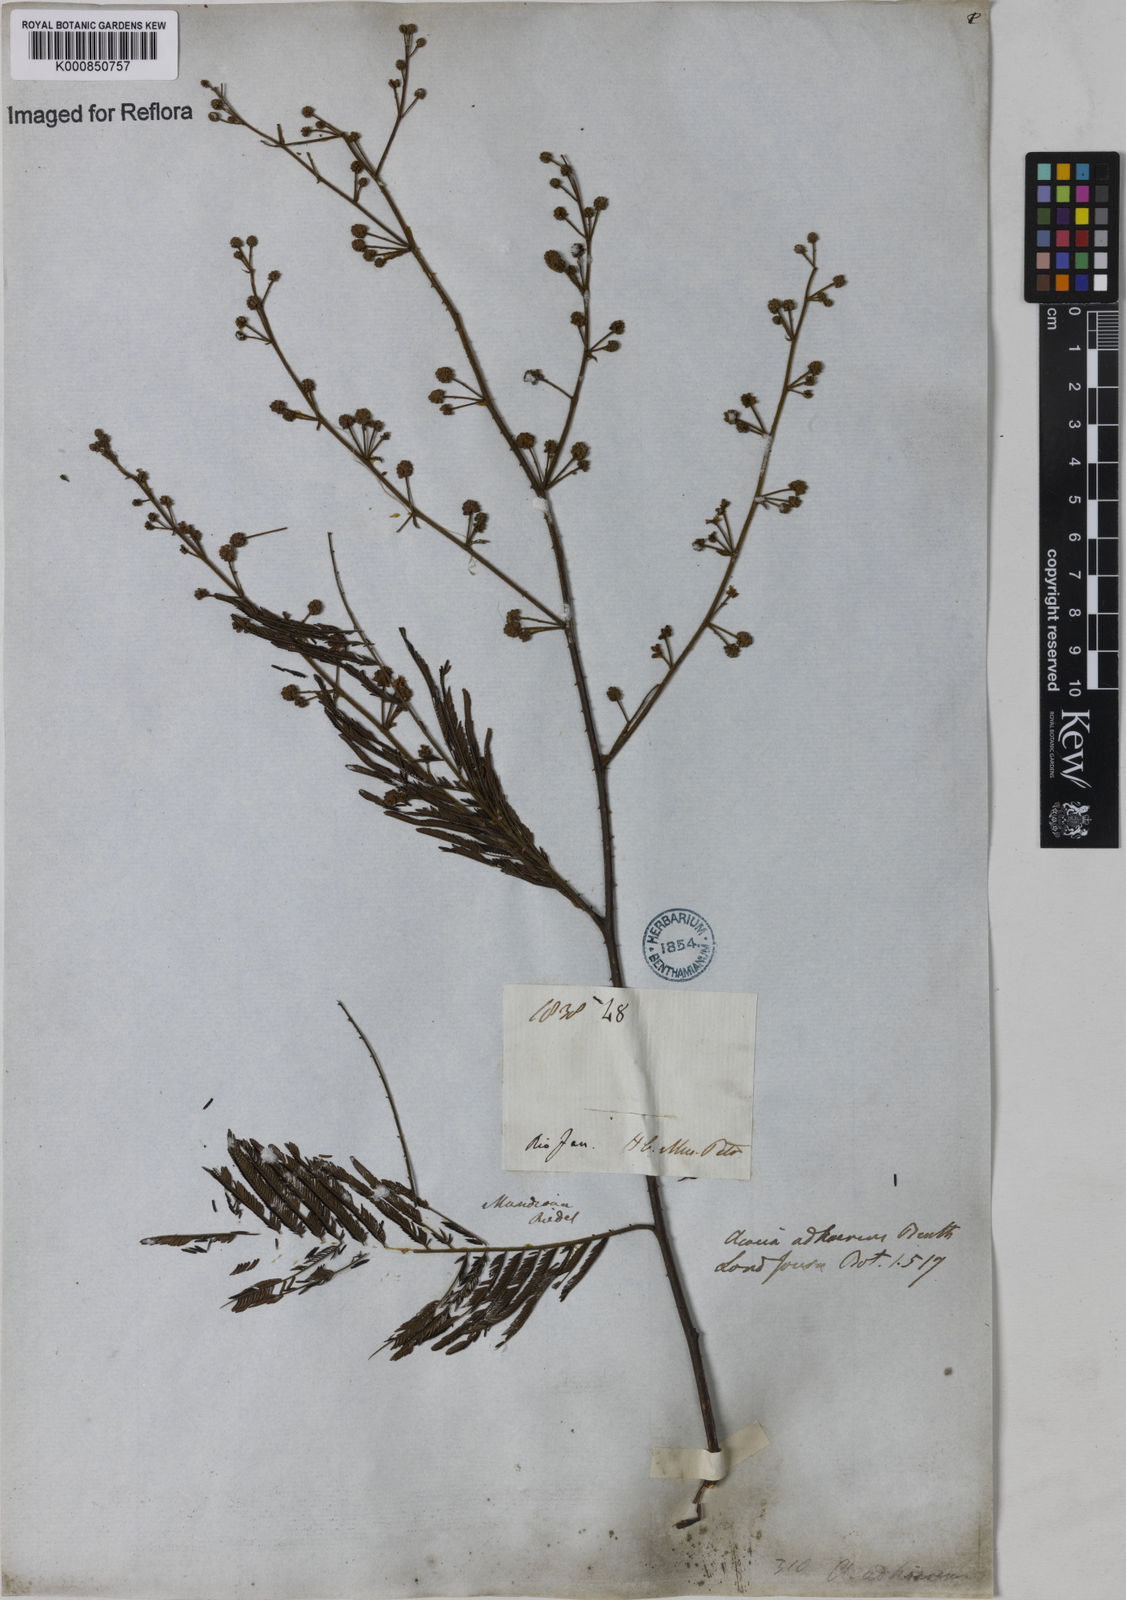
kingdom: Plantae
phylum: Tracheophyta
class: Magnoliopsida
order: Fabales
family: Fabaceae
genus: Senegalia
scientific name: Senegalia martiusiana
